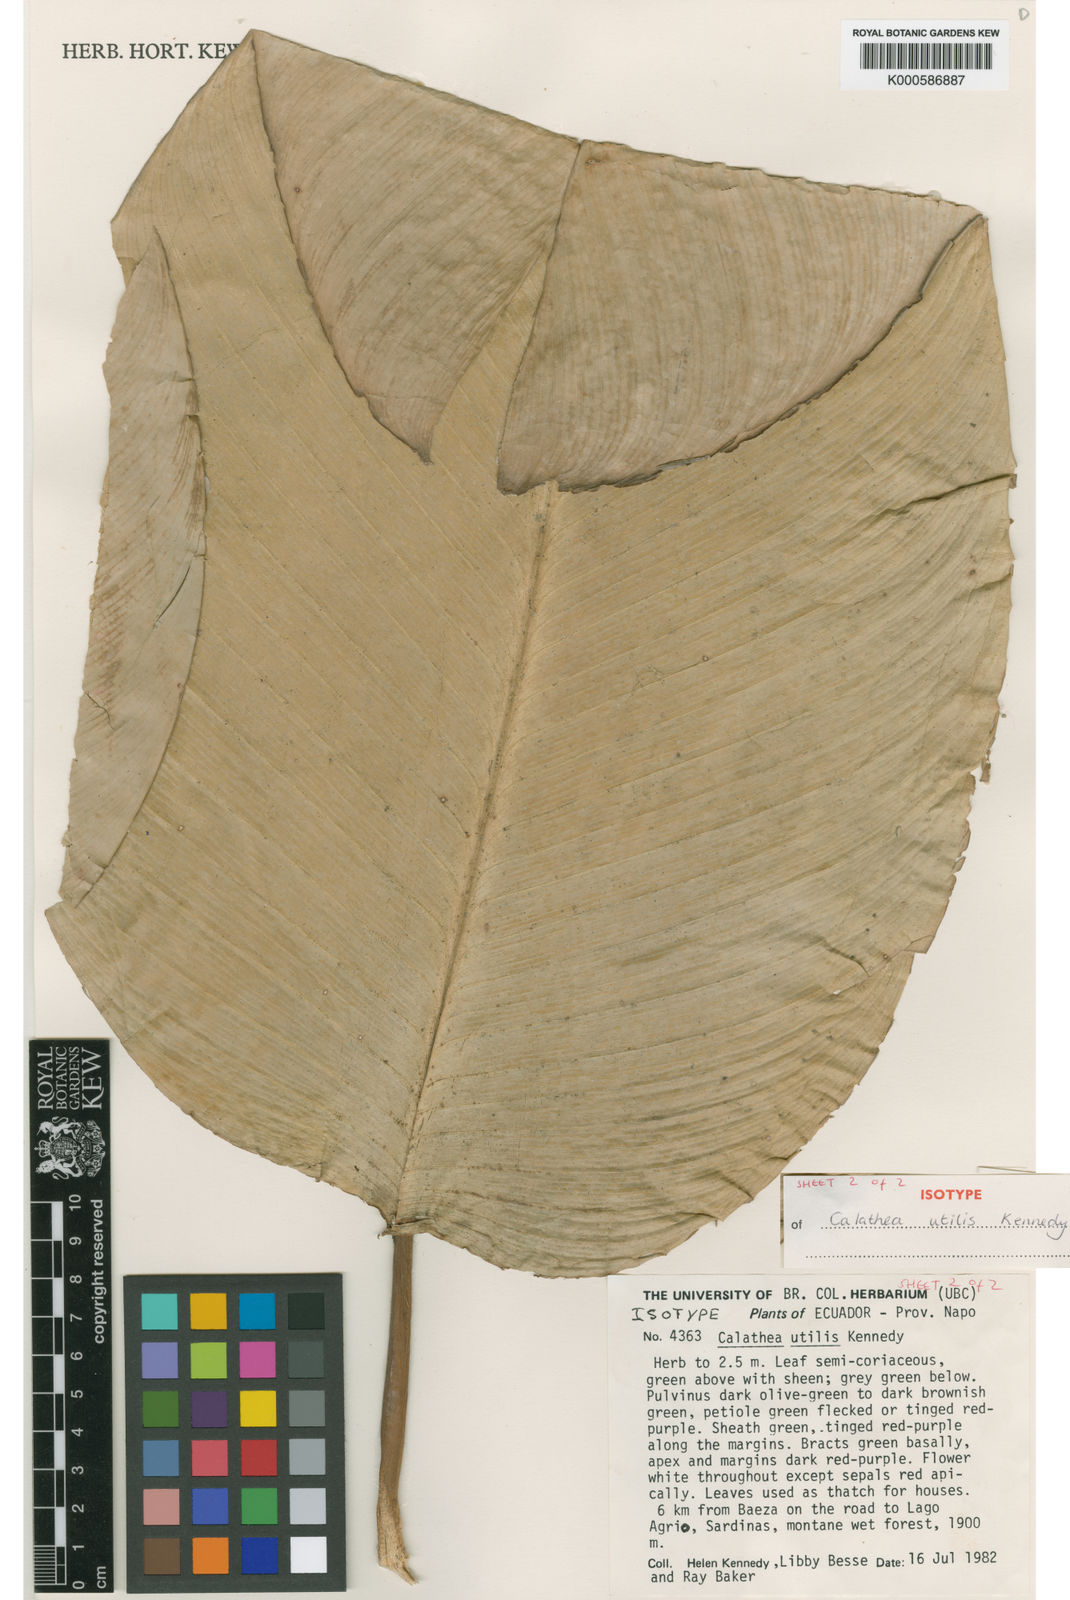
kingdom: Plantae
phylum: Tracheophyta
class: Liliopsida
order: Zingiberales
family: Marantaceae
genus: Calathea
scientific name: Calathea utilis
